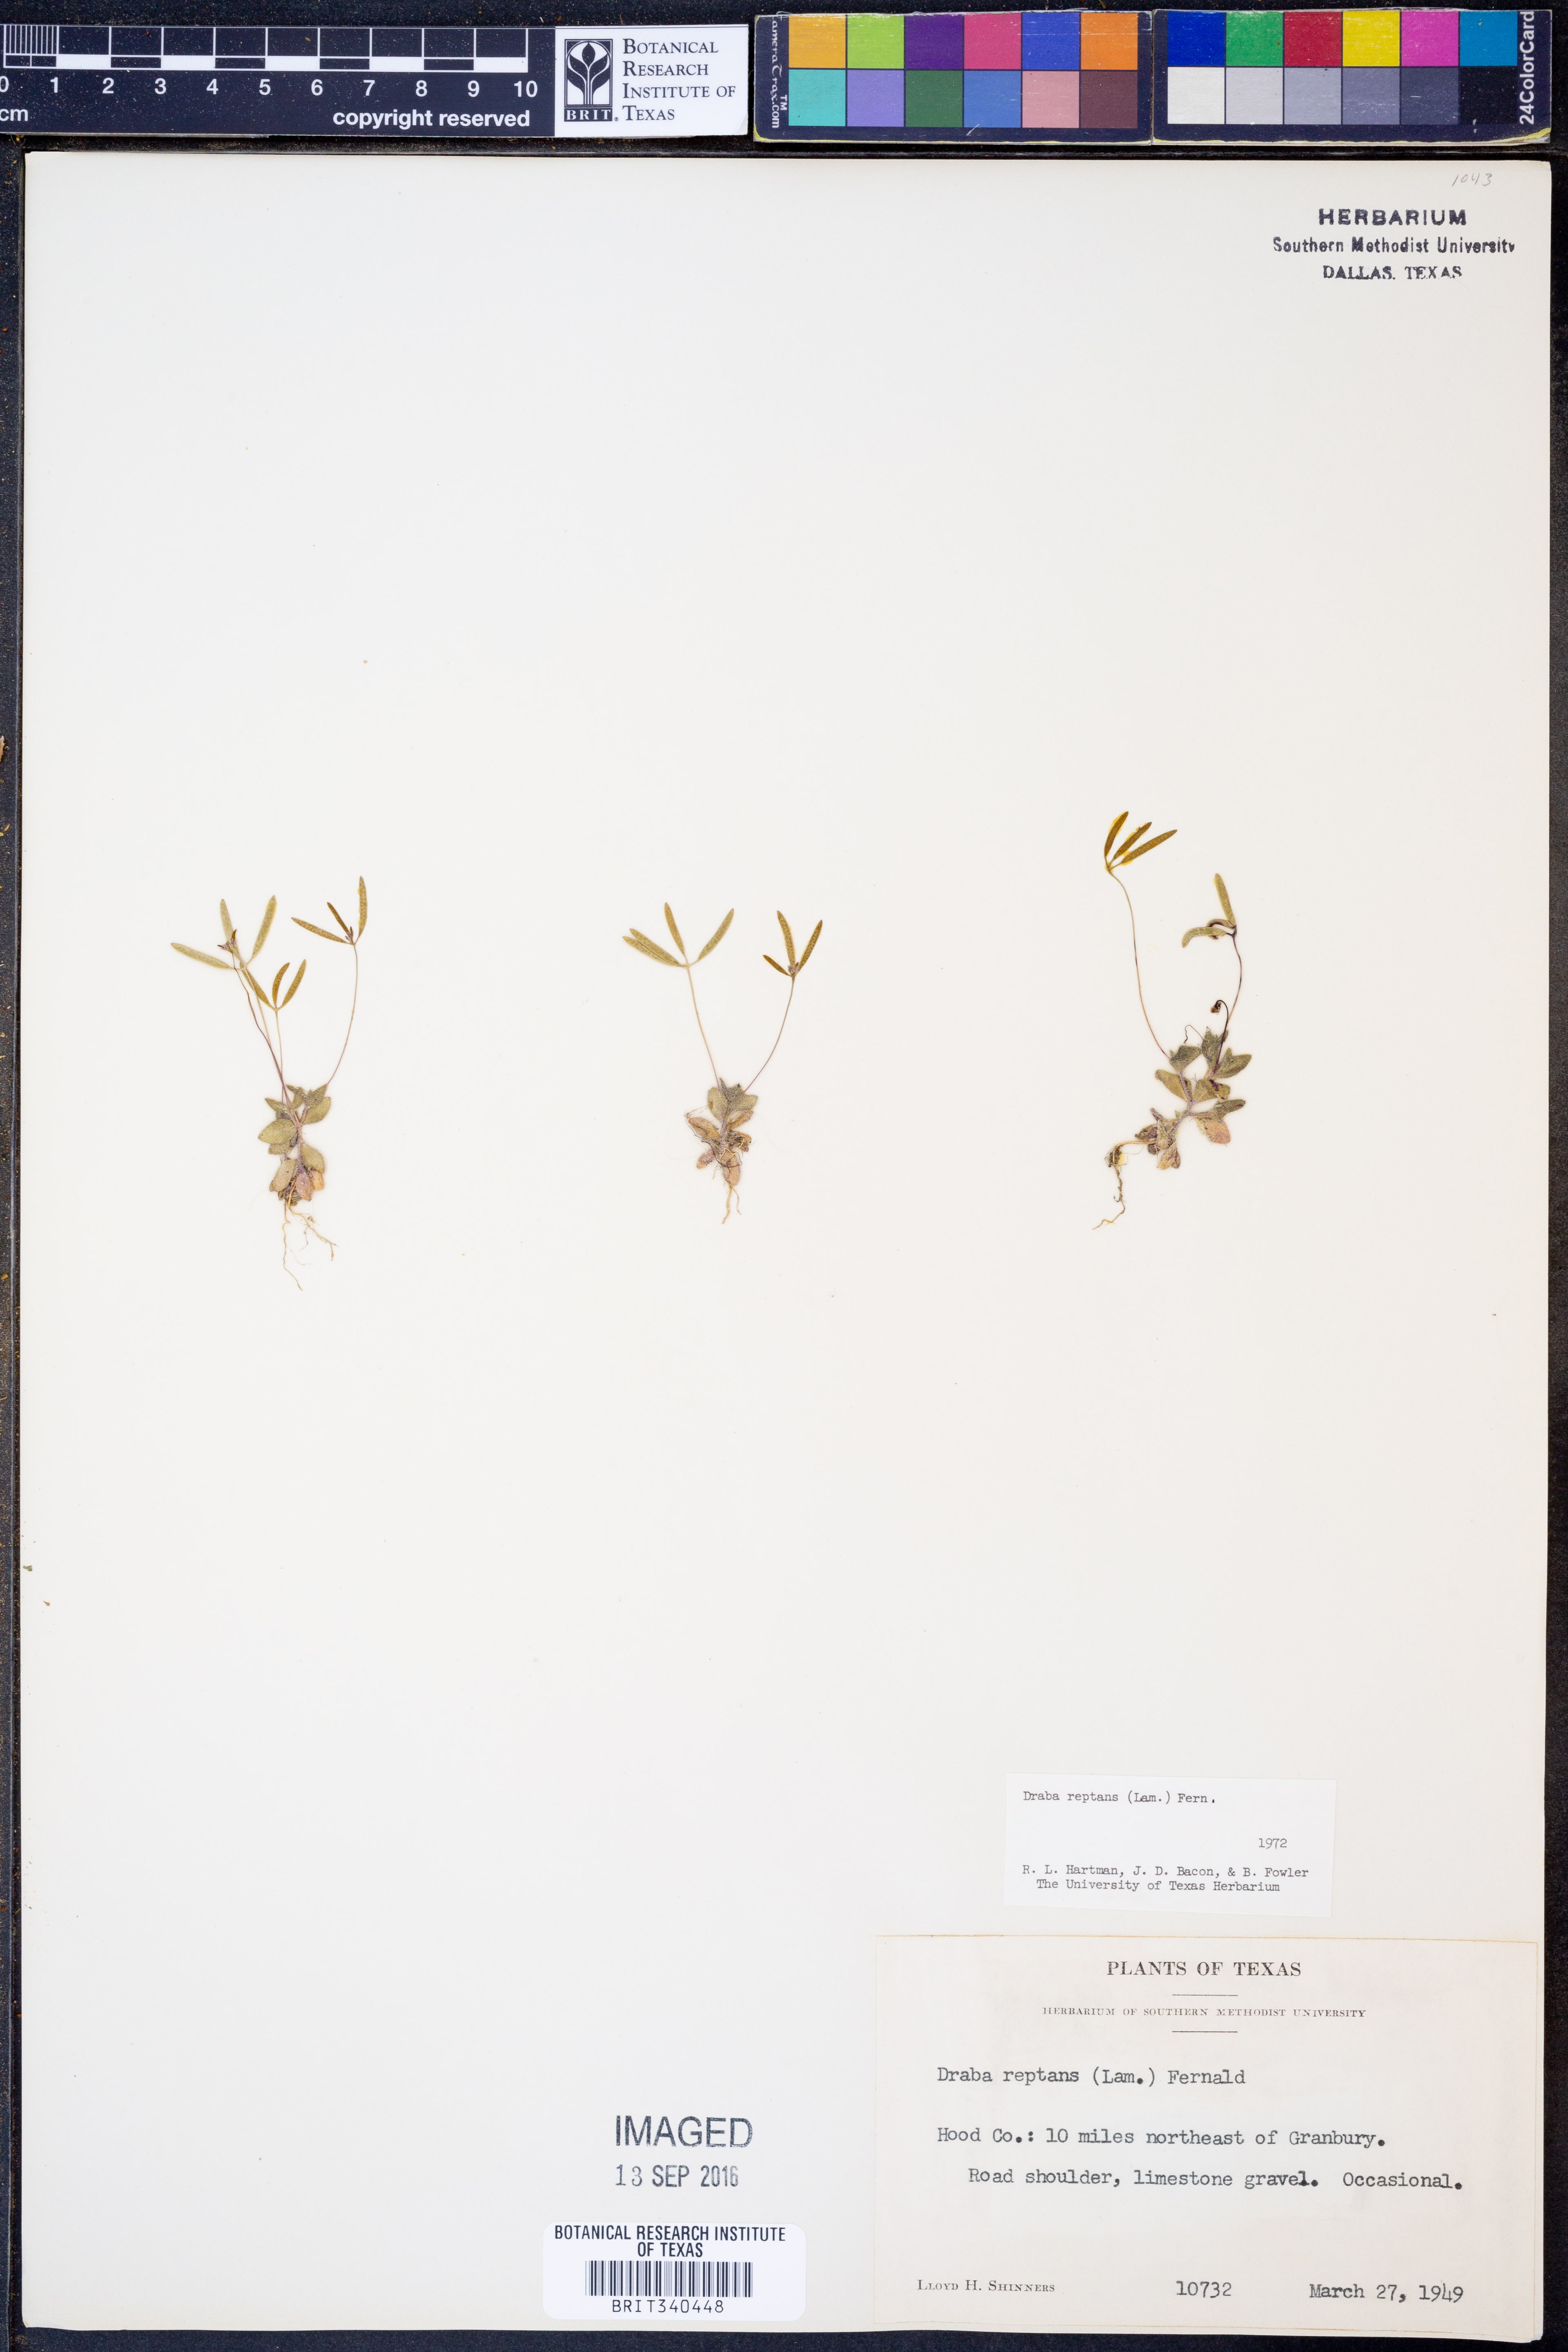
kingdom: Plantae
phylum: Tracheophyta
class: Magnoliopsida
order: Brassicales
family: Brassicaceae
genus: Tomostima
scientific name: Tomostima reptans
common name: Carolina draba
